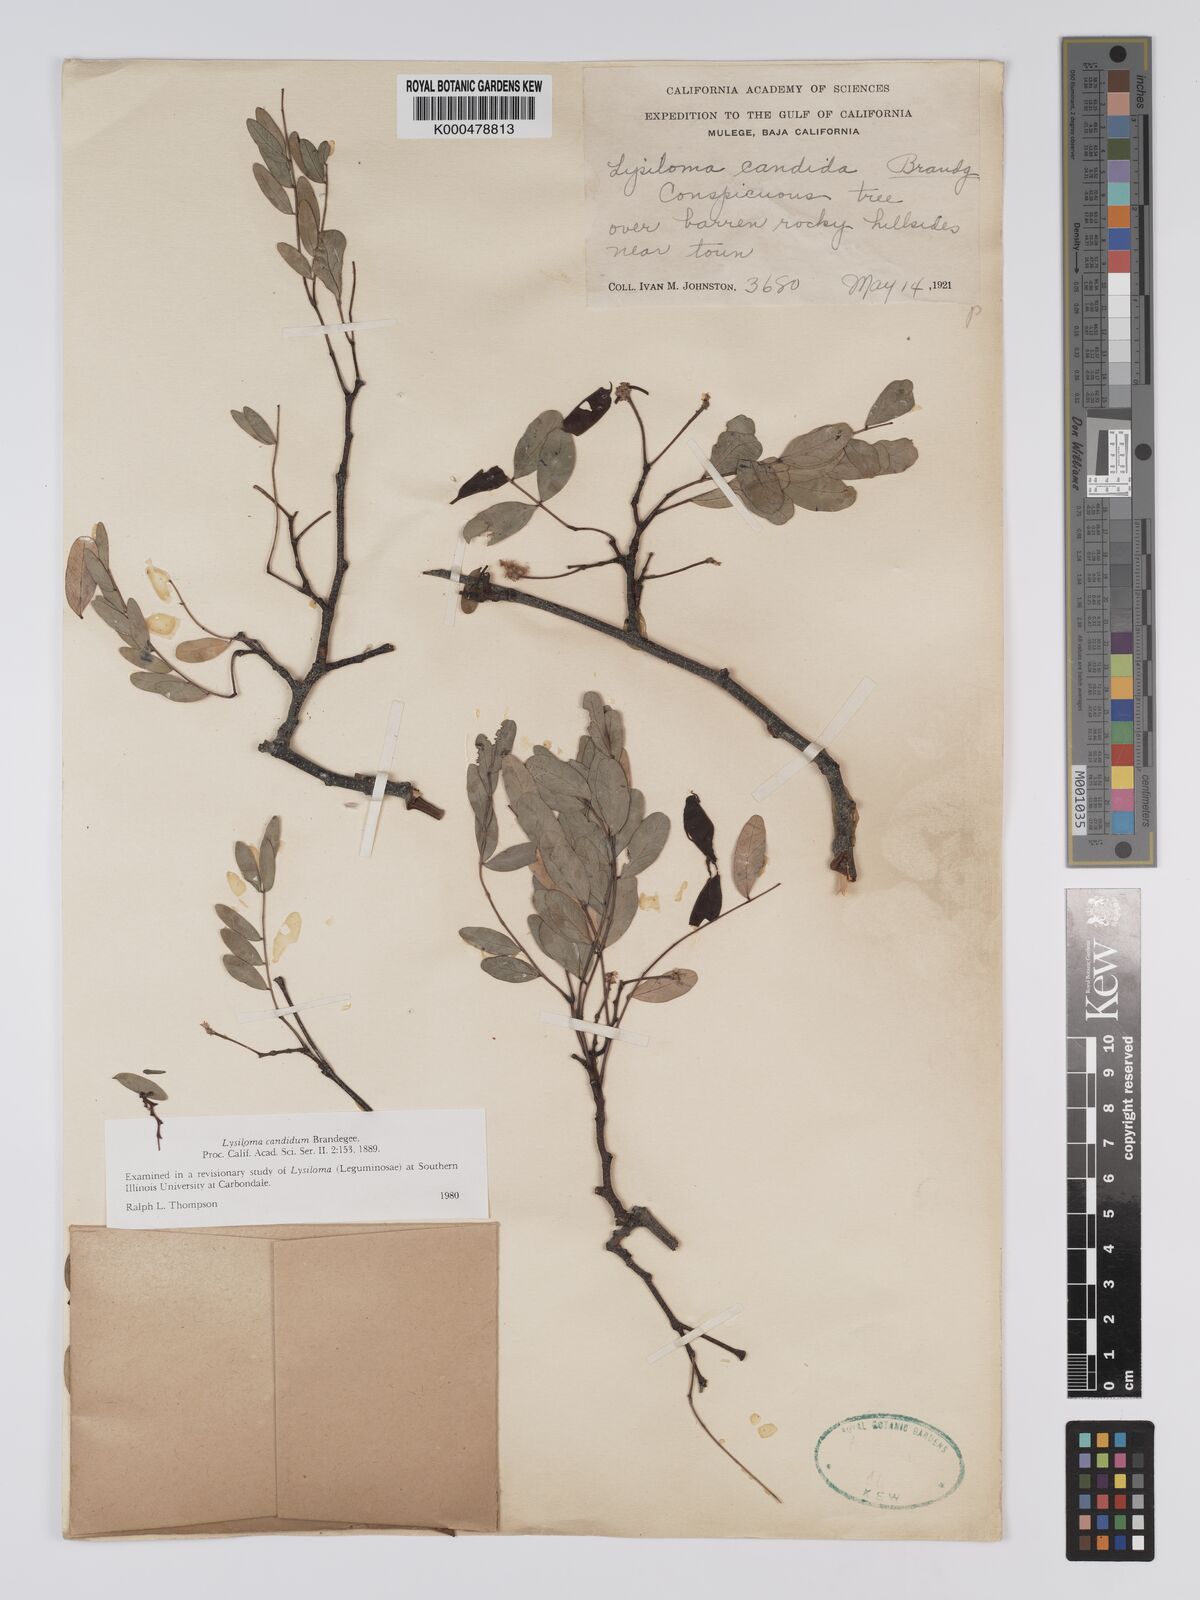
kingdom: Plantae
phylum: Tracheophyta
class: Magnoliopsida
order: Fabales
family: Fabaceae
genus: Lysiloma
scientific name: Lysiloma candidum
